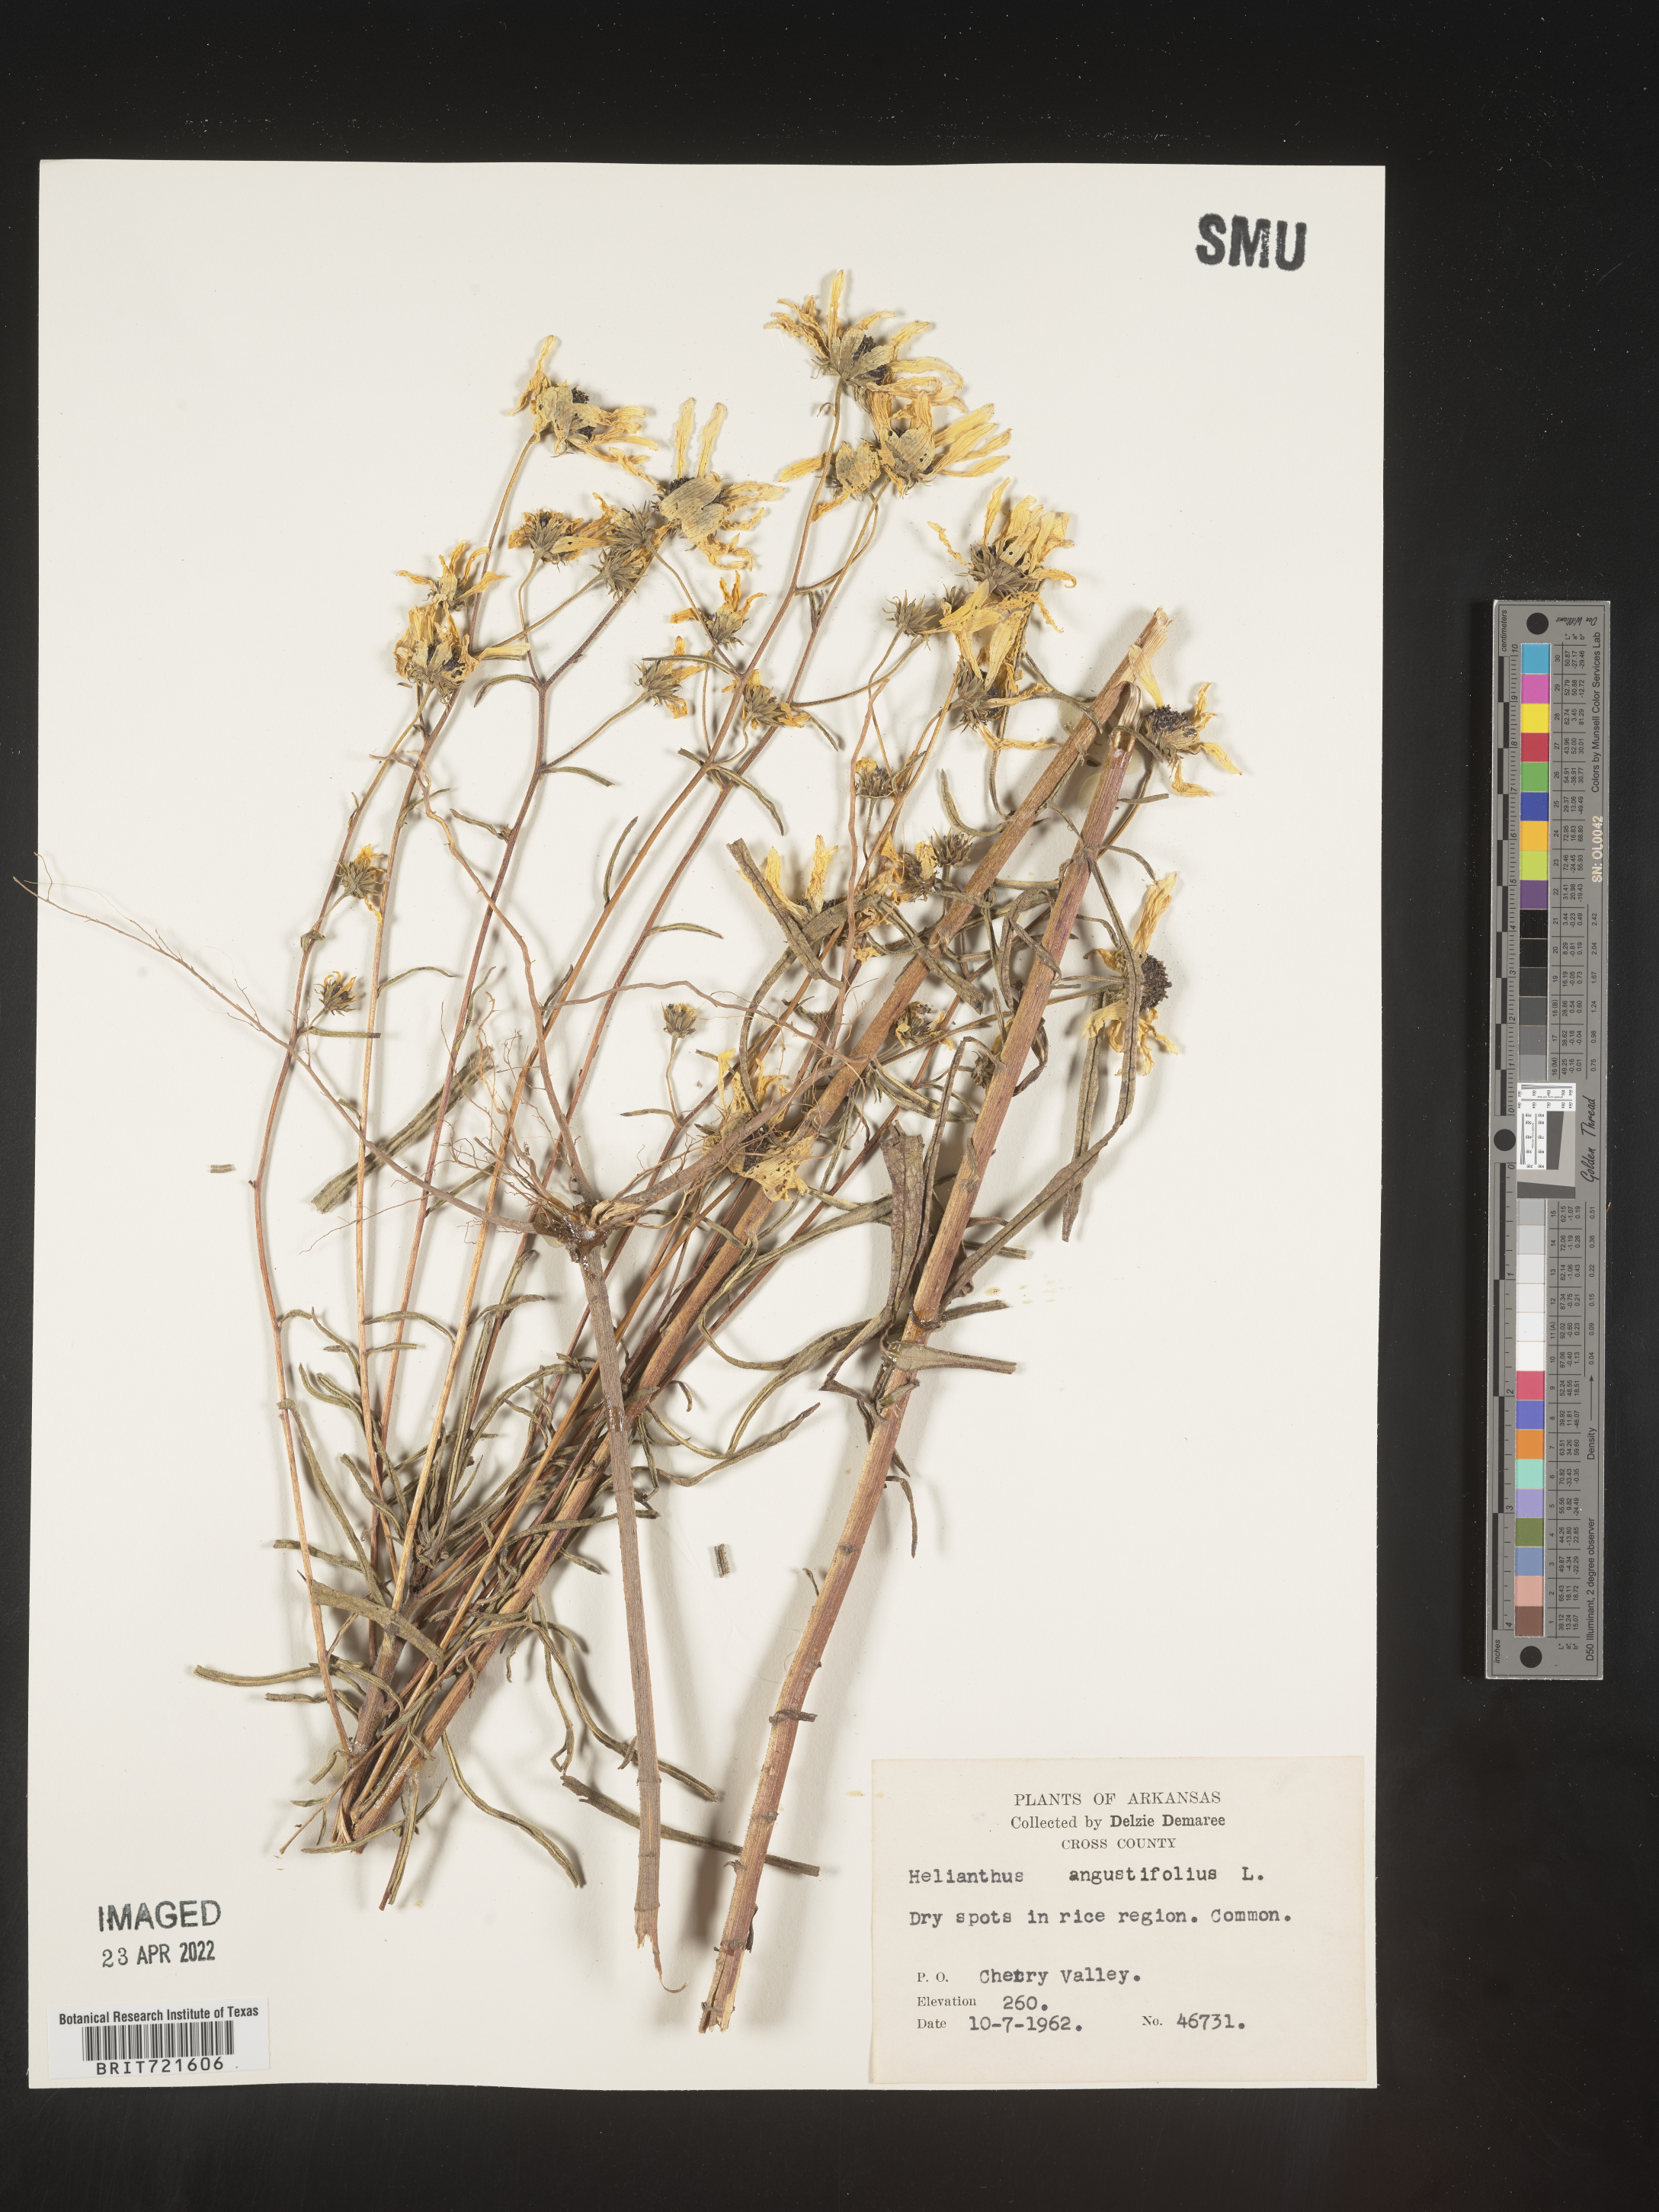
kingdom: Plantae
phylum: Tracheophyta
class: Magnoliopsida
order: Asterales
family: Asteraceae
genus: Helianthus
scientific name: Helianthus angustifolius
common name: Swamp sunflower
